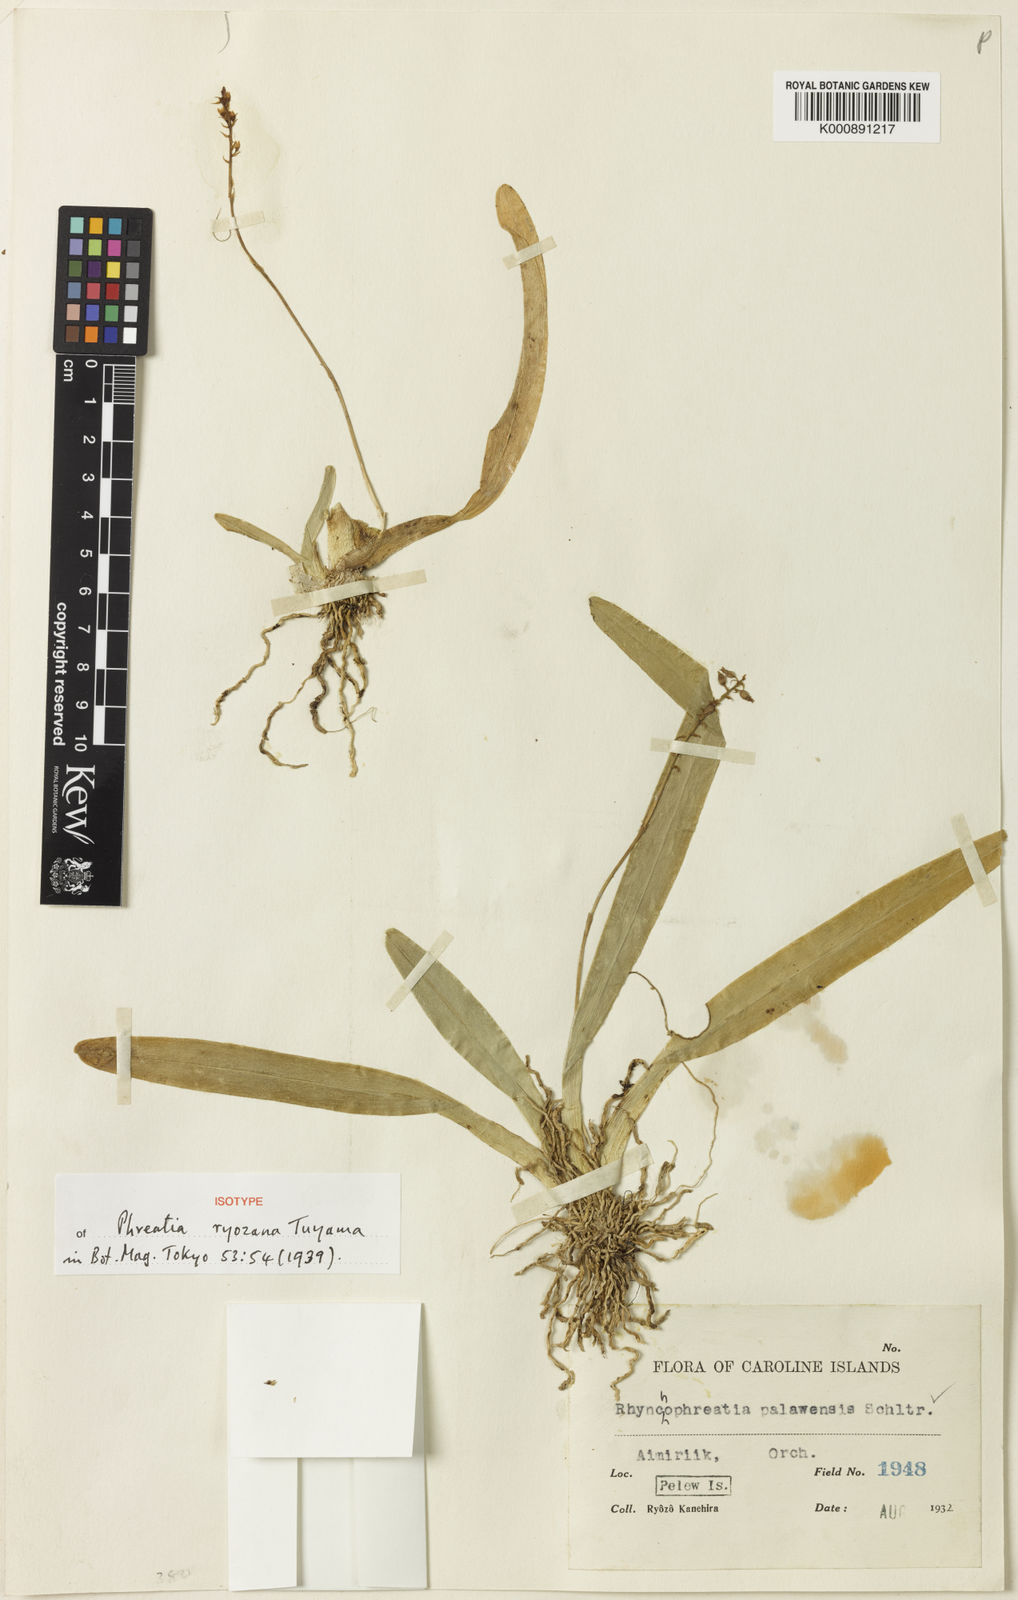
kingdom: Plantae
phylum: Tracheophyta
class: Liliopsida
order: Asparagales
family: Orchidaceae
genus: Thelasis
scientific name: Thelasis
